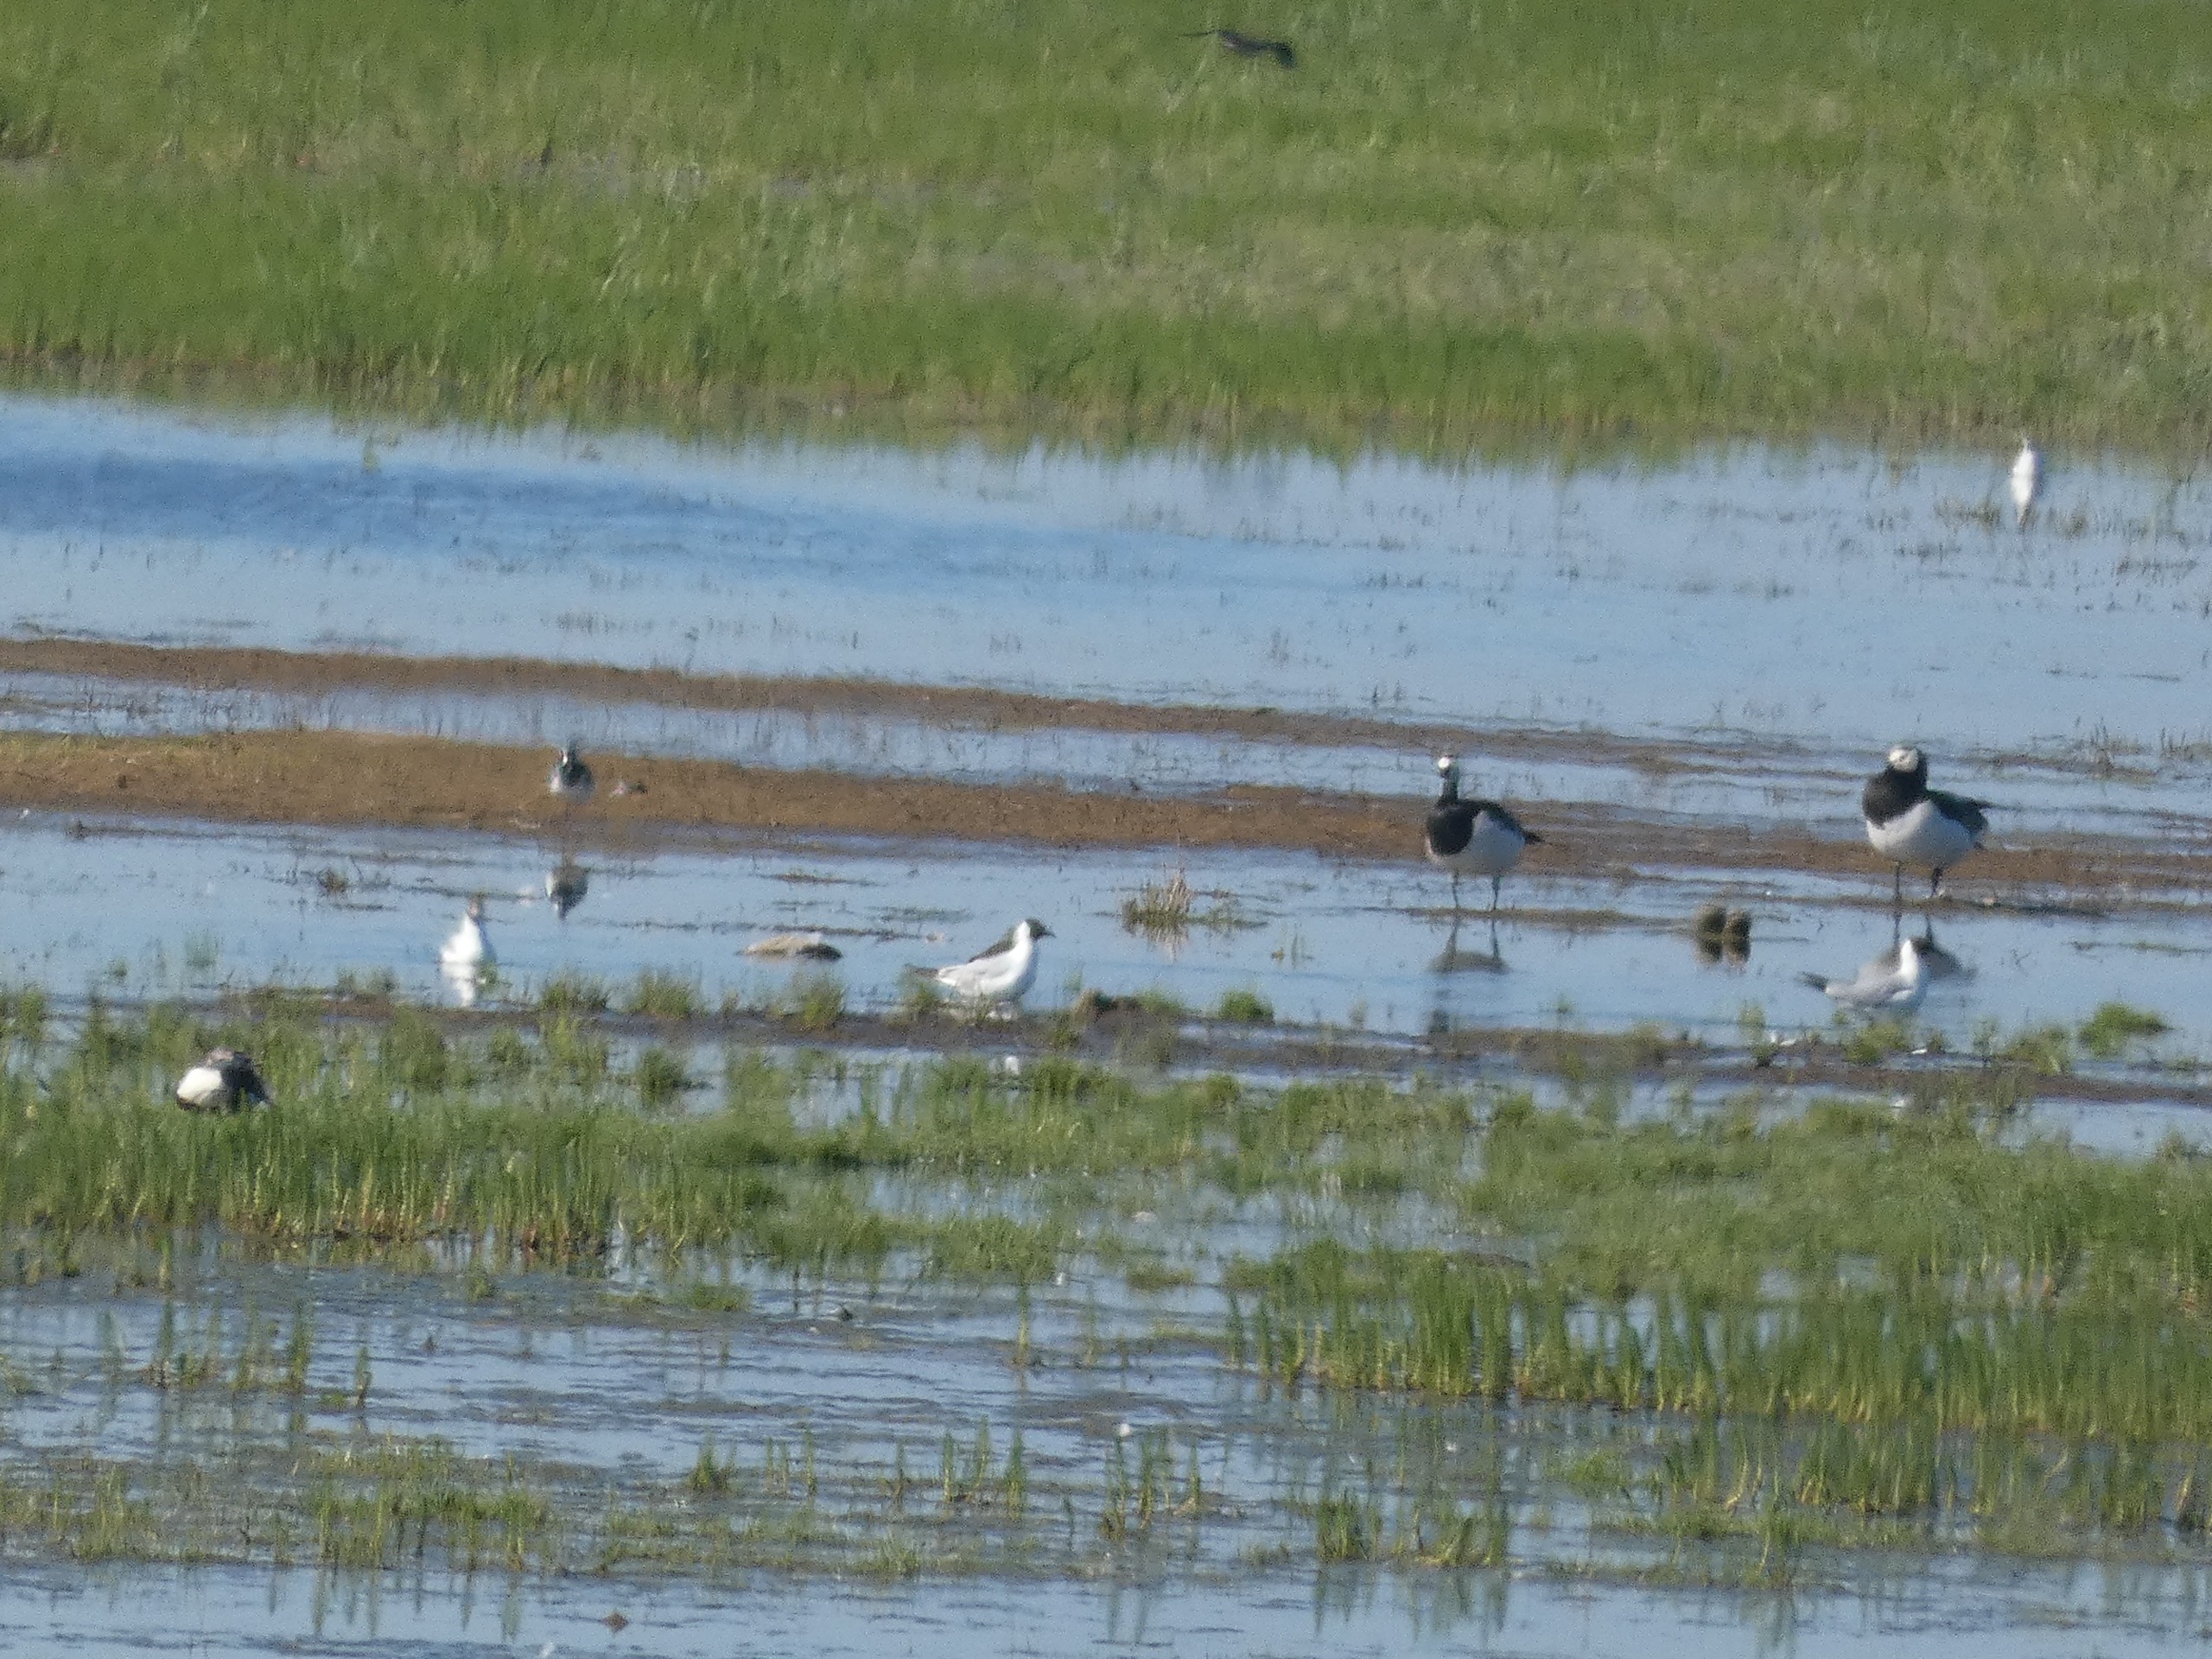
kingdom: Animalia
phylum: Chordata
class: Aves
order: Anseriformes
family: Anatidae
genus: Branta
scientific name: Branta leucopsis
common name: Bramgås
